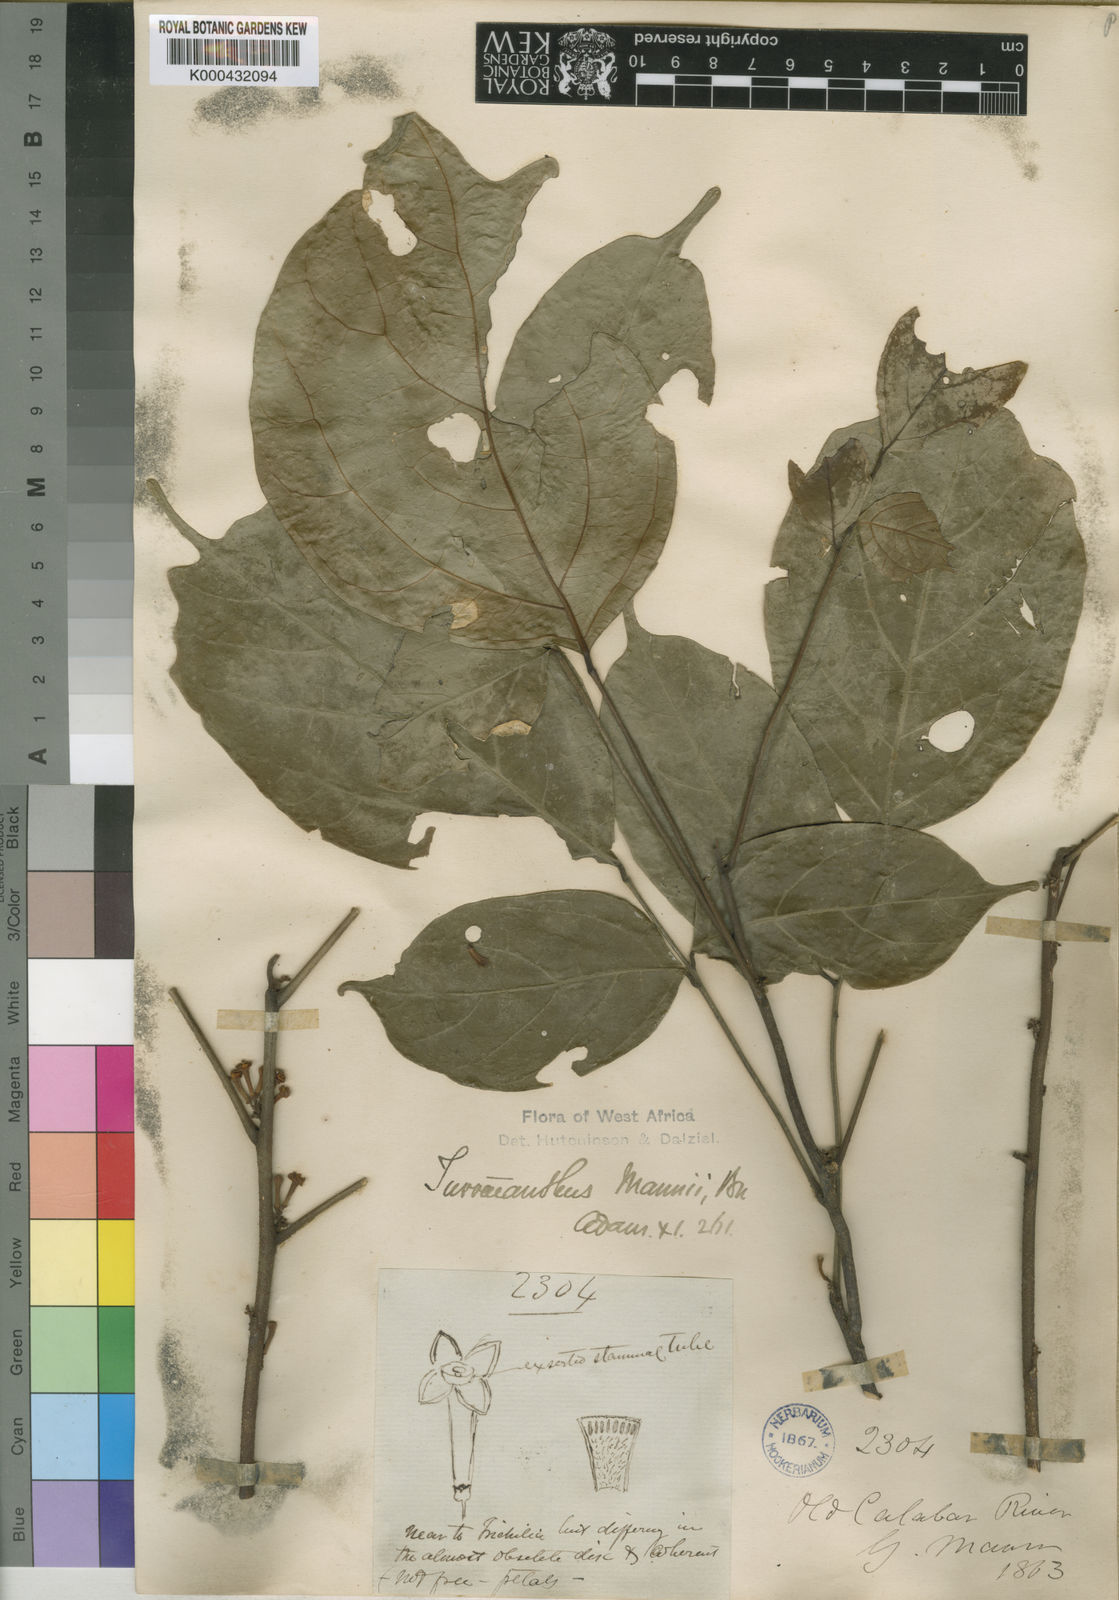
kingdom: Plantae
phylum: Tracheophyta
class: Magnoliopsida
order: Sapindales
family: Meliaceae
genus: Turraeanthus
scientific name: Turraeanthus mannii
